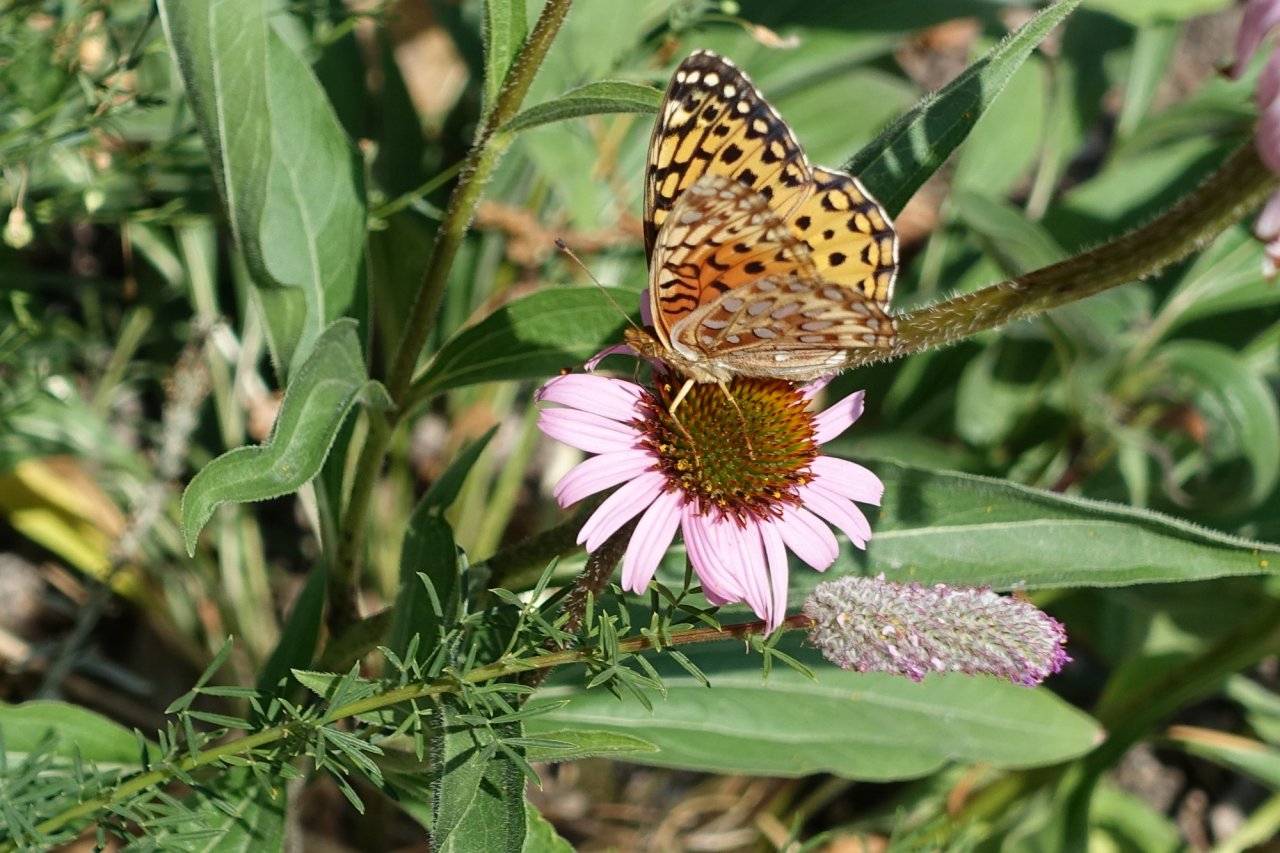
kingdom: Animalia
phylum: Arthropoda
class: Insecta
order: Lepidoptera
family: Nymphalidae
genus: Speyeria
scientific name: Speyeria
